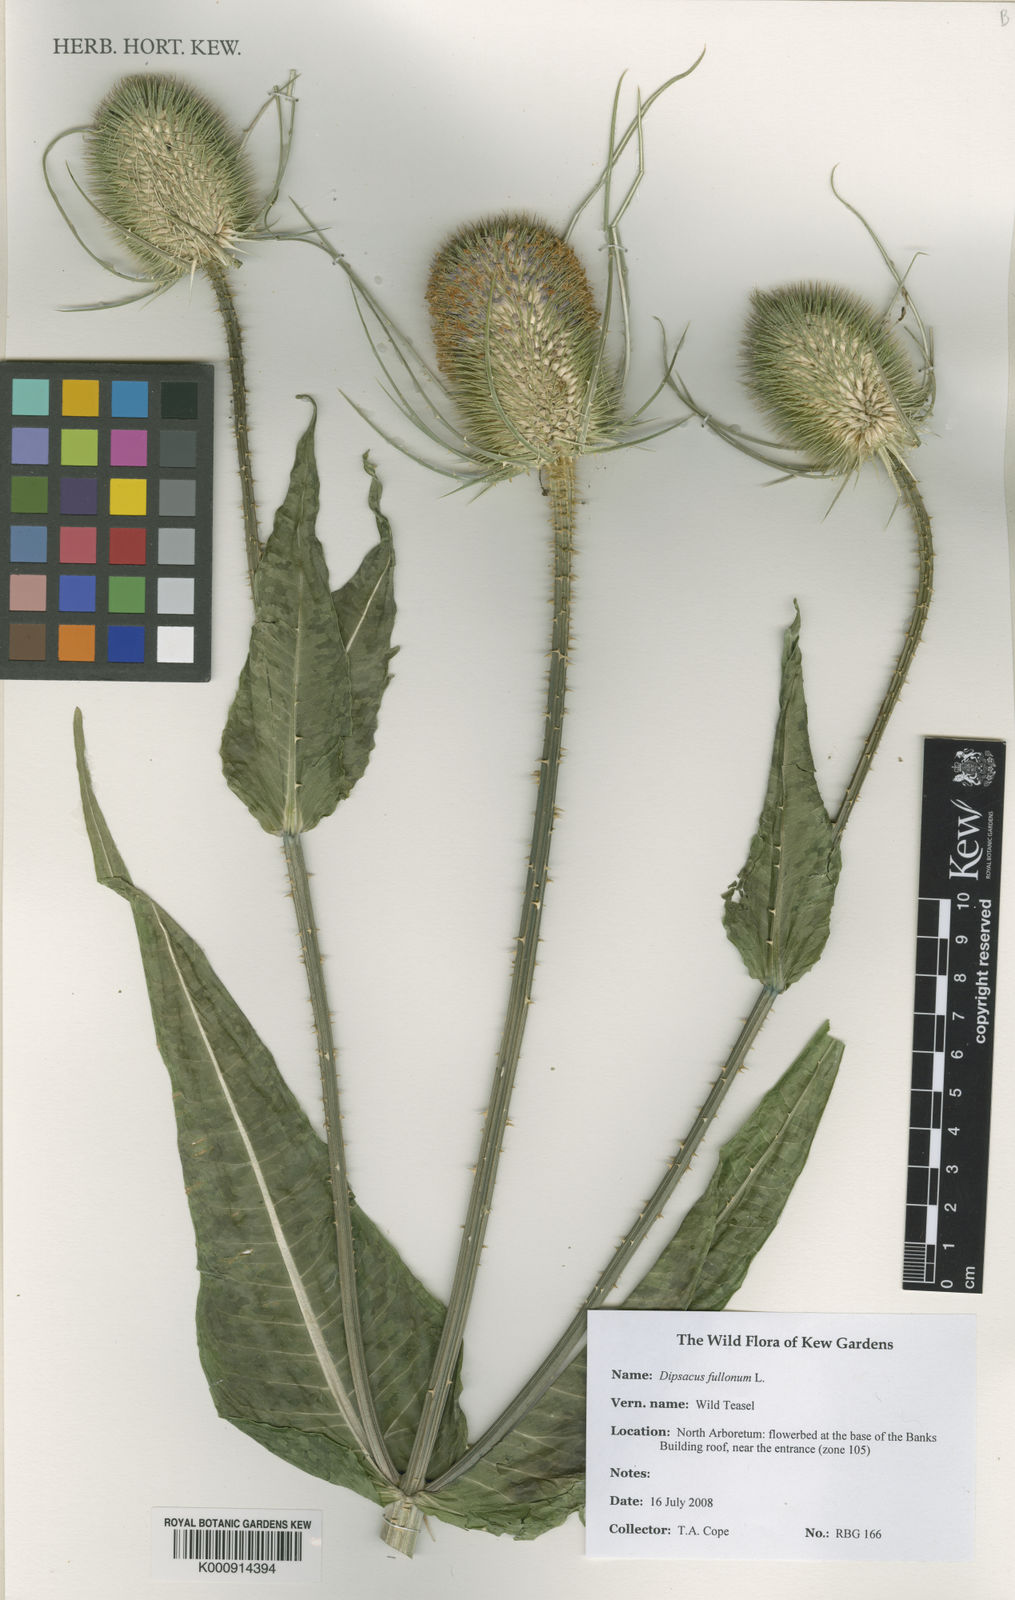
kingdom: Plantae
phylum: Tracheophyta
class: Magnoliopsida
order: Dipsacales
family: Caprifoliaceae
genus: Dipsacus
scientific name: Dipsacus fullonum
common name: Teasel
